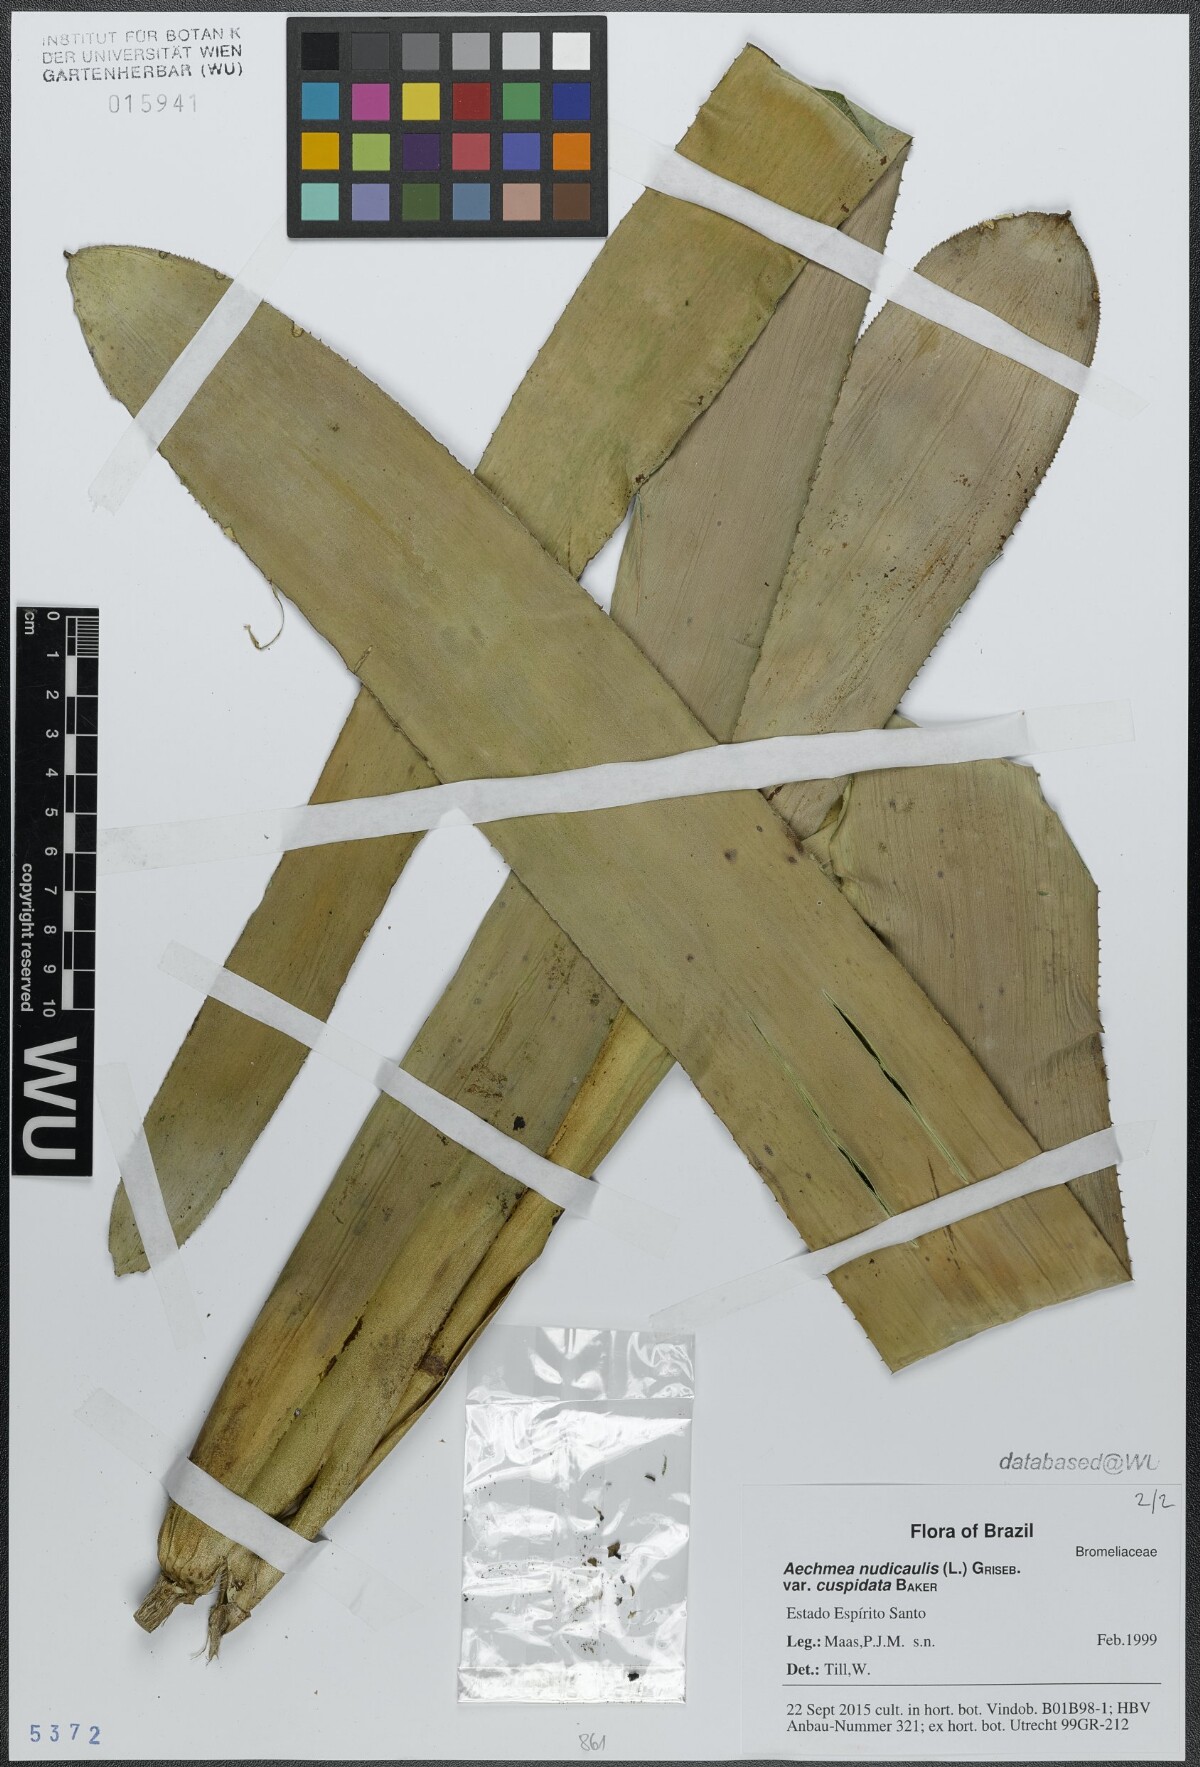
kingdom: Plantae
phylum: Tracheophyta
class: Liliopsida
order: Poales
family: Bromeliaceae
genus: Aechmea
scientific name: Aechmea nudicaulis
